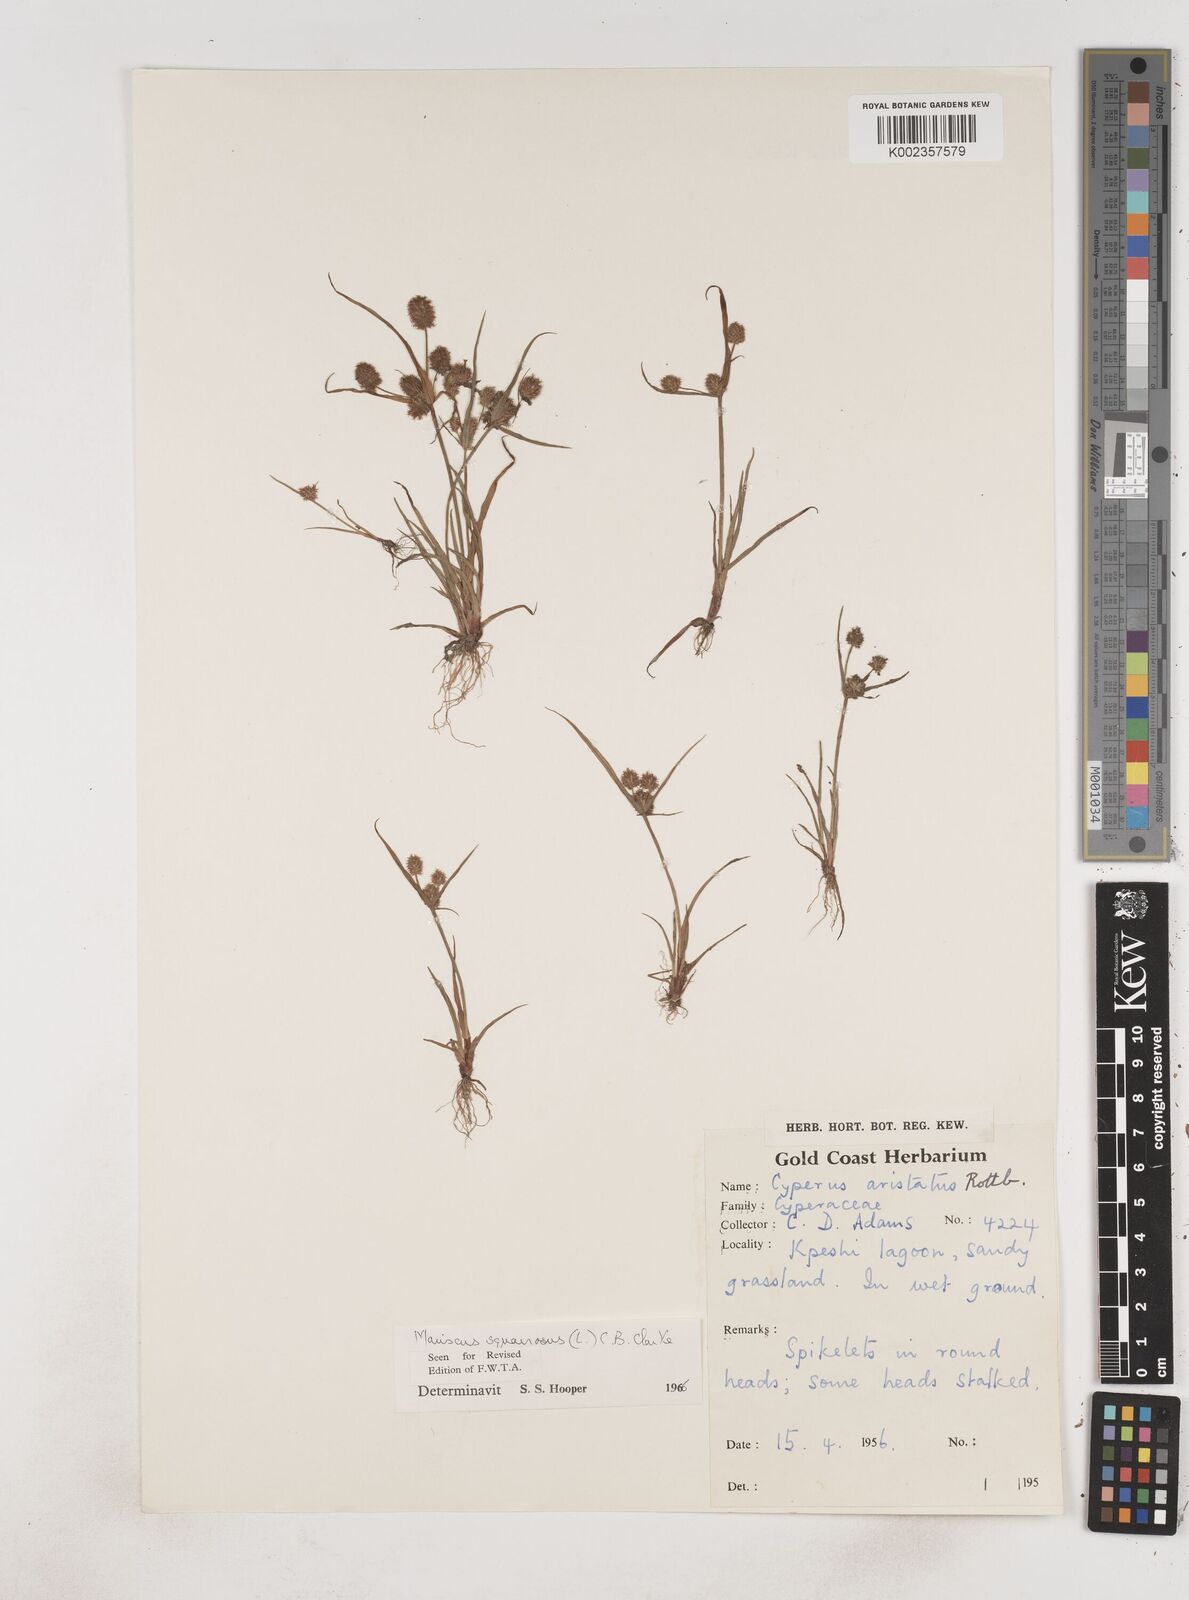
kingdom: Plantae
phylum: Tracheophyta
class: Liliopsida
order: Poales
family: Cyperaceae
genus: Cyperus
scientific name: Cyperus squarrosus
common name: Awned cyperus
